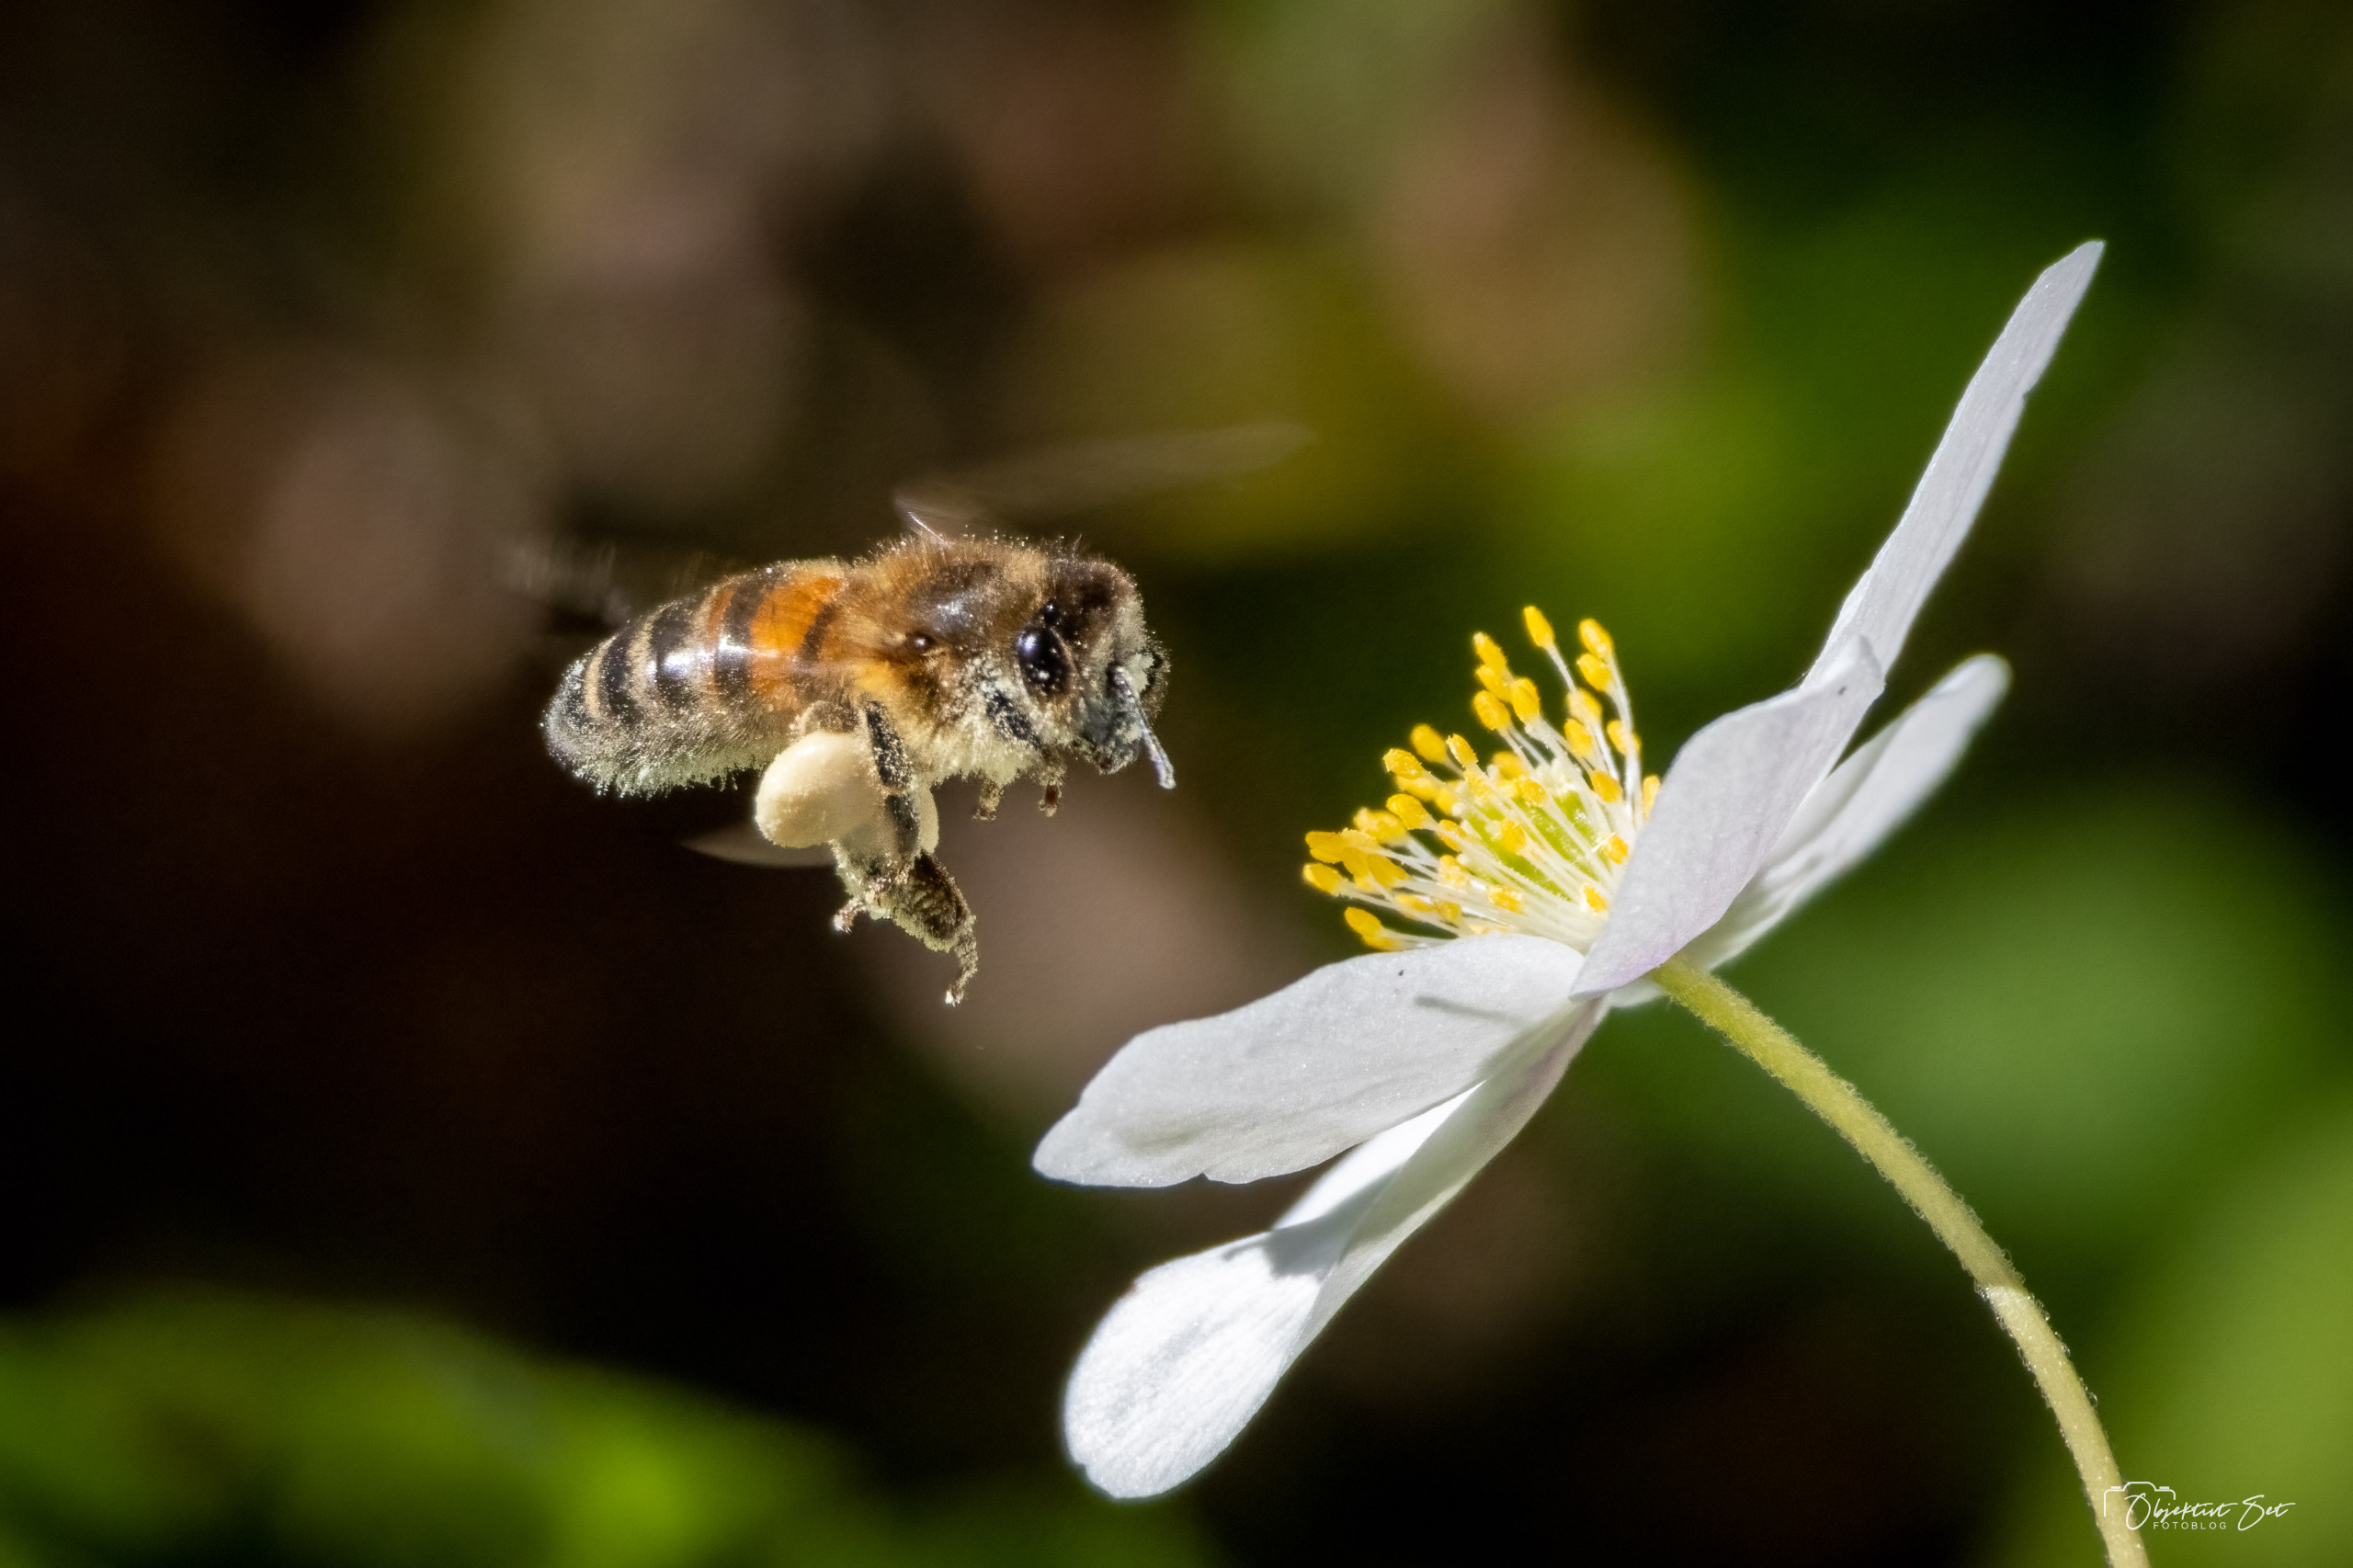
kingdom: Animalia
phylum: Arthropoda
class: Insecta
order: Hymenoptera
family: Apidae
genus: Apis
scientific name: Apis mellifera
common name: Honningbi
